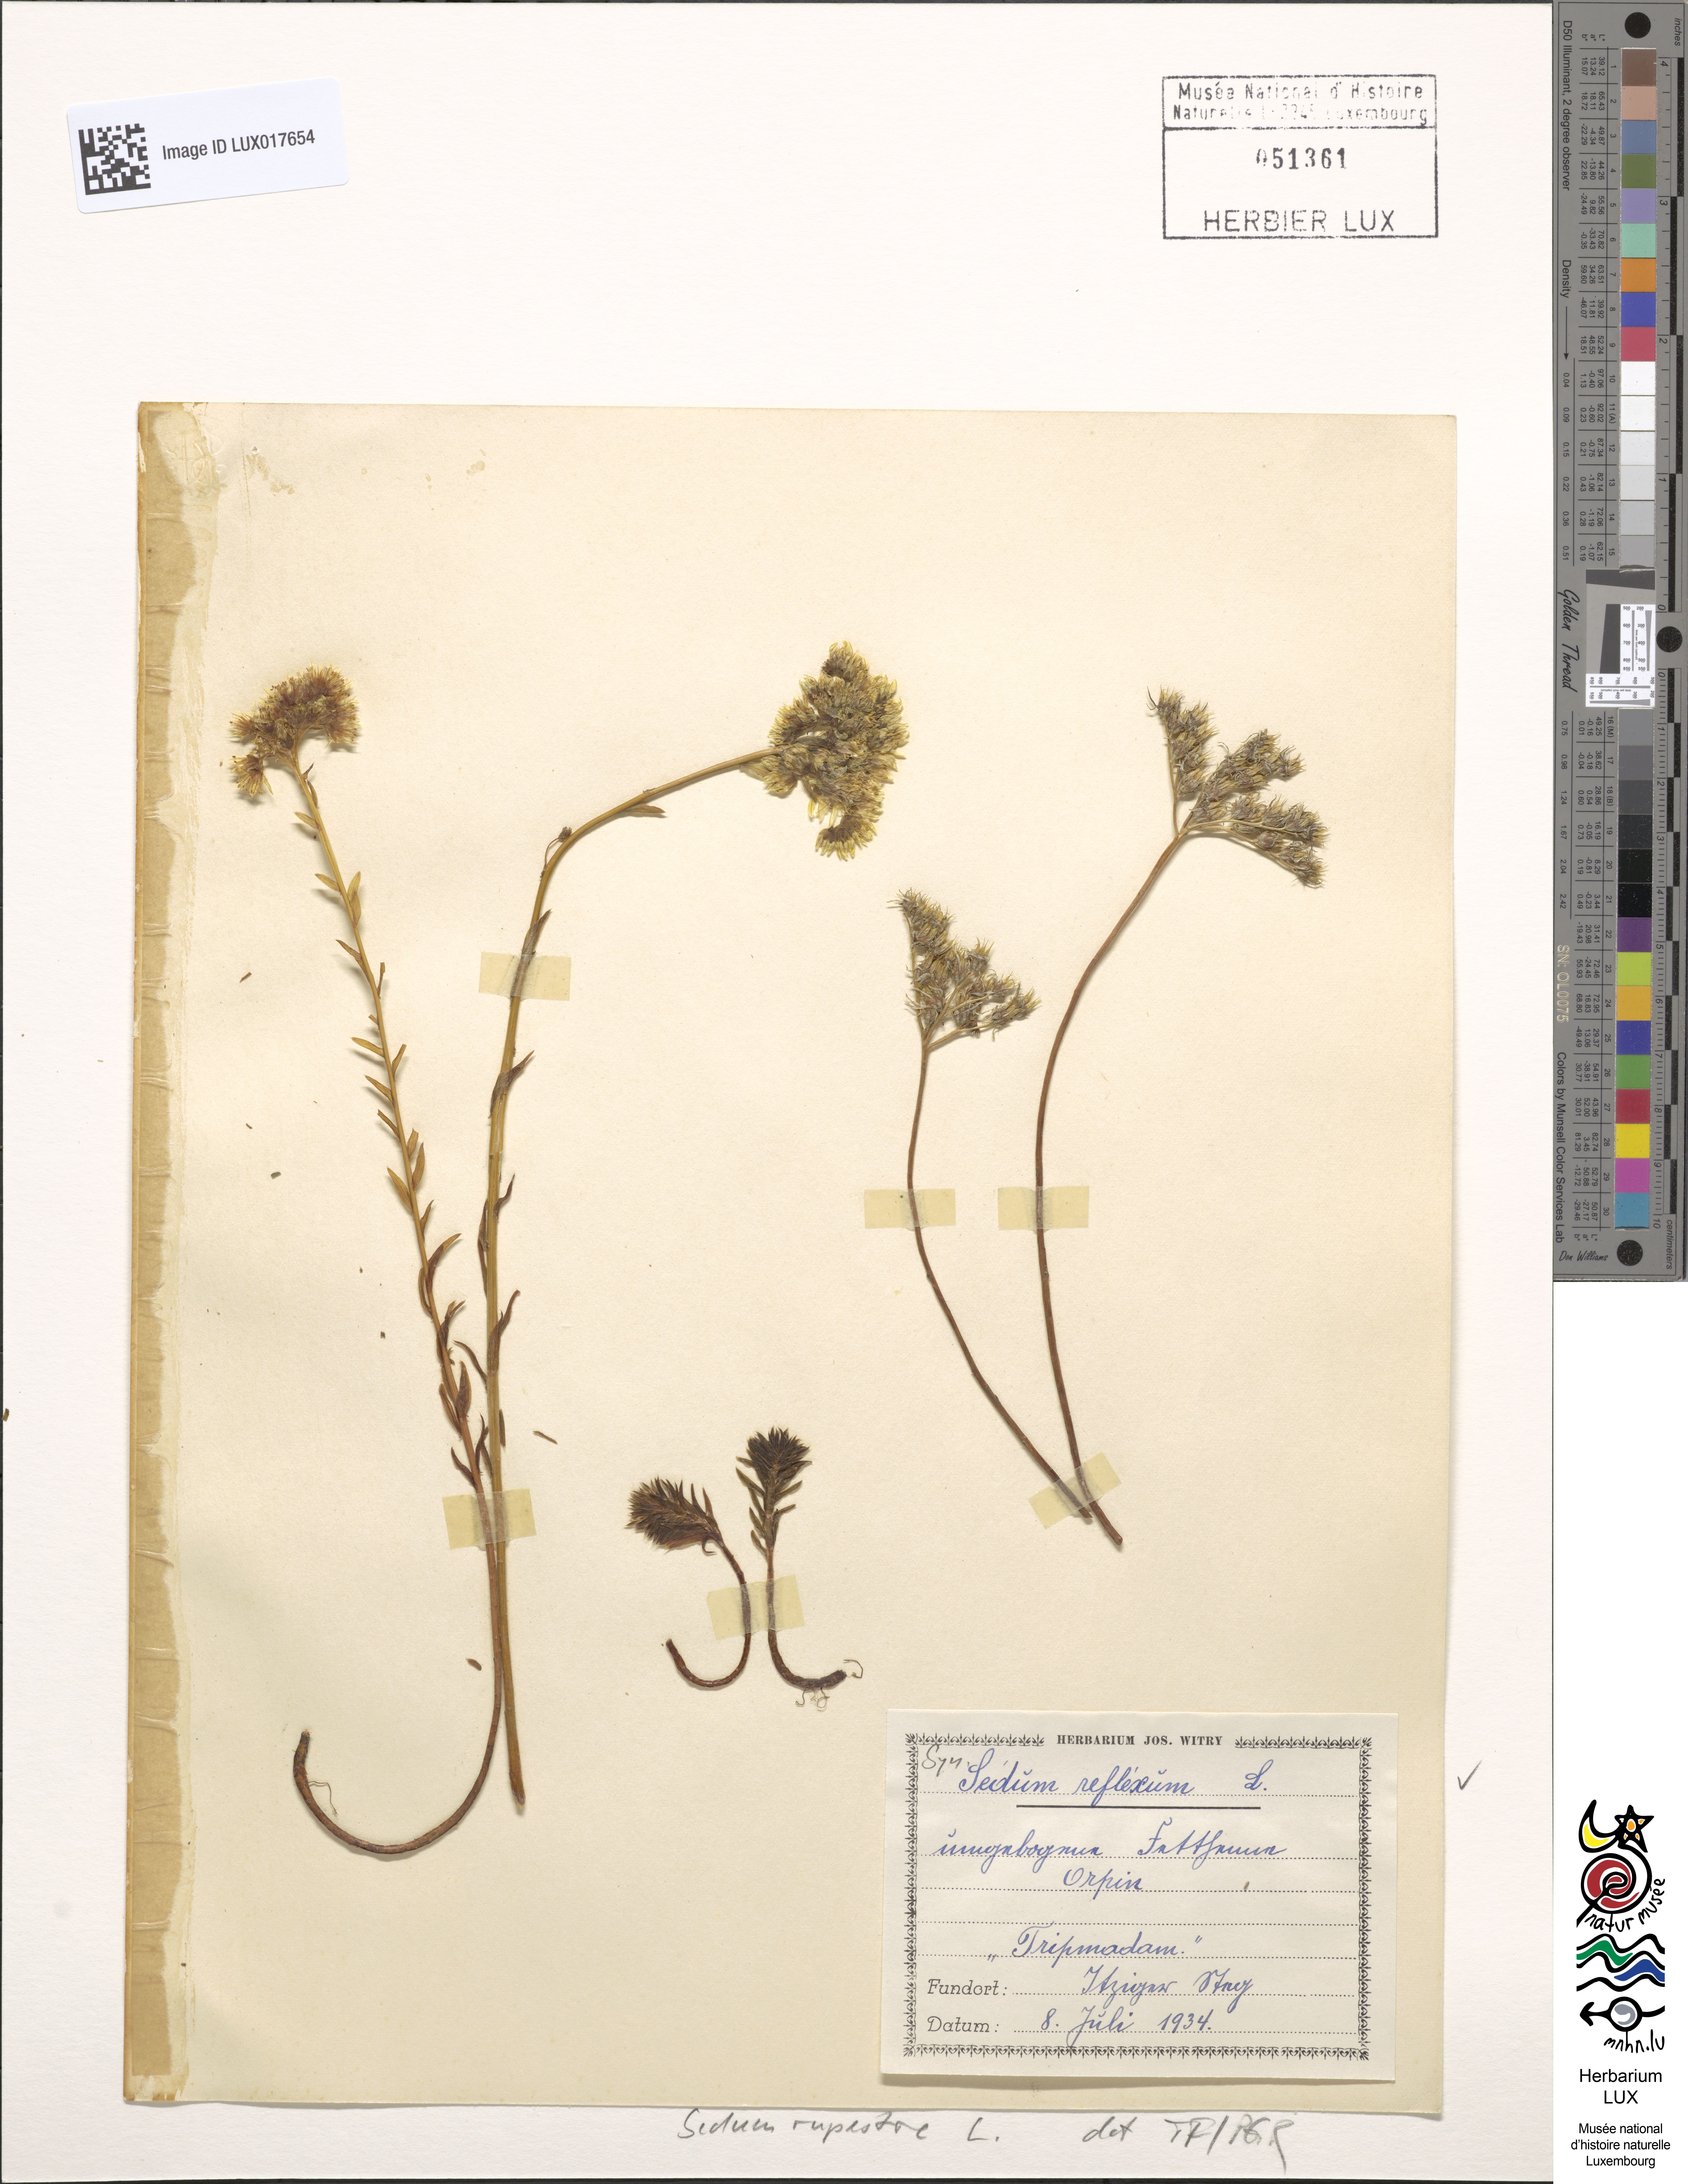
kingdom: Plantae
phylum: Tracheophyta
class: Magnoliopsida
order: Saxifragales
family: Crassulaceae
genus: Petrosedum
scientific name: Petrosedum rupestre
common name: Jenny's stonecrop
